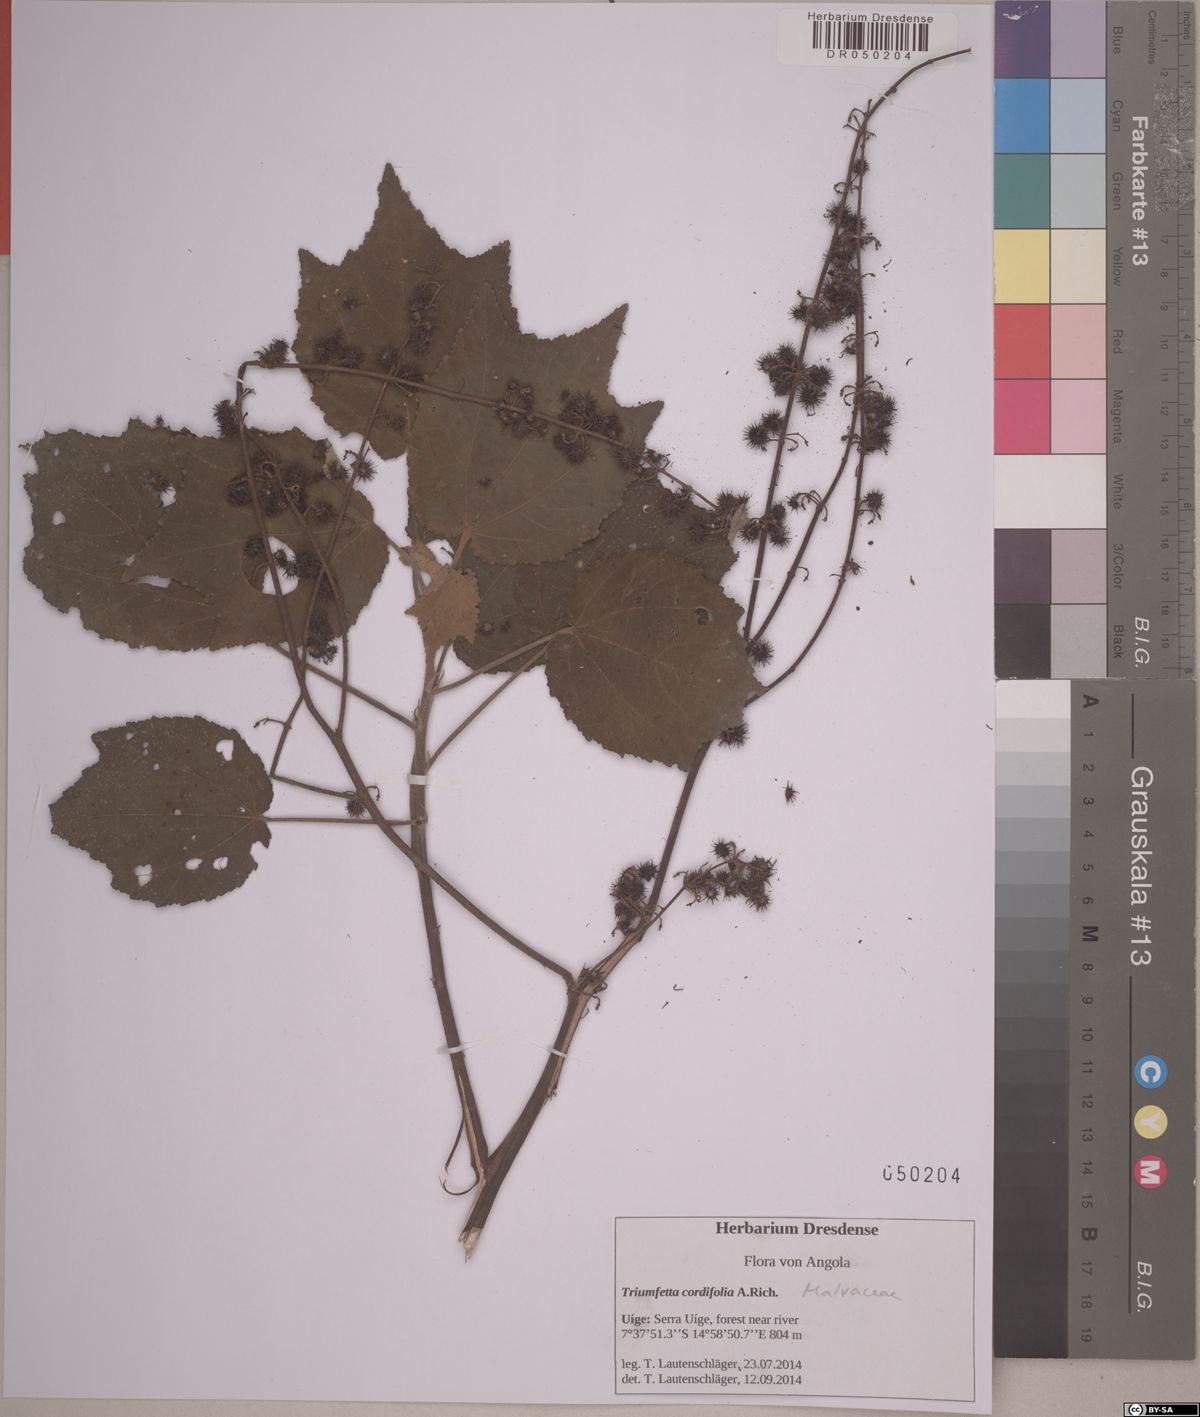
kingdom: Plantae
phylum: Tracheophyta
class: Magnoliopsida
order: Malvales
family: Malvaceae
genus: Triumfetta
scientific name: Triumfetta cordifolia
